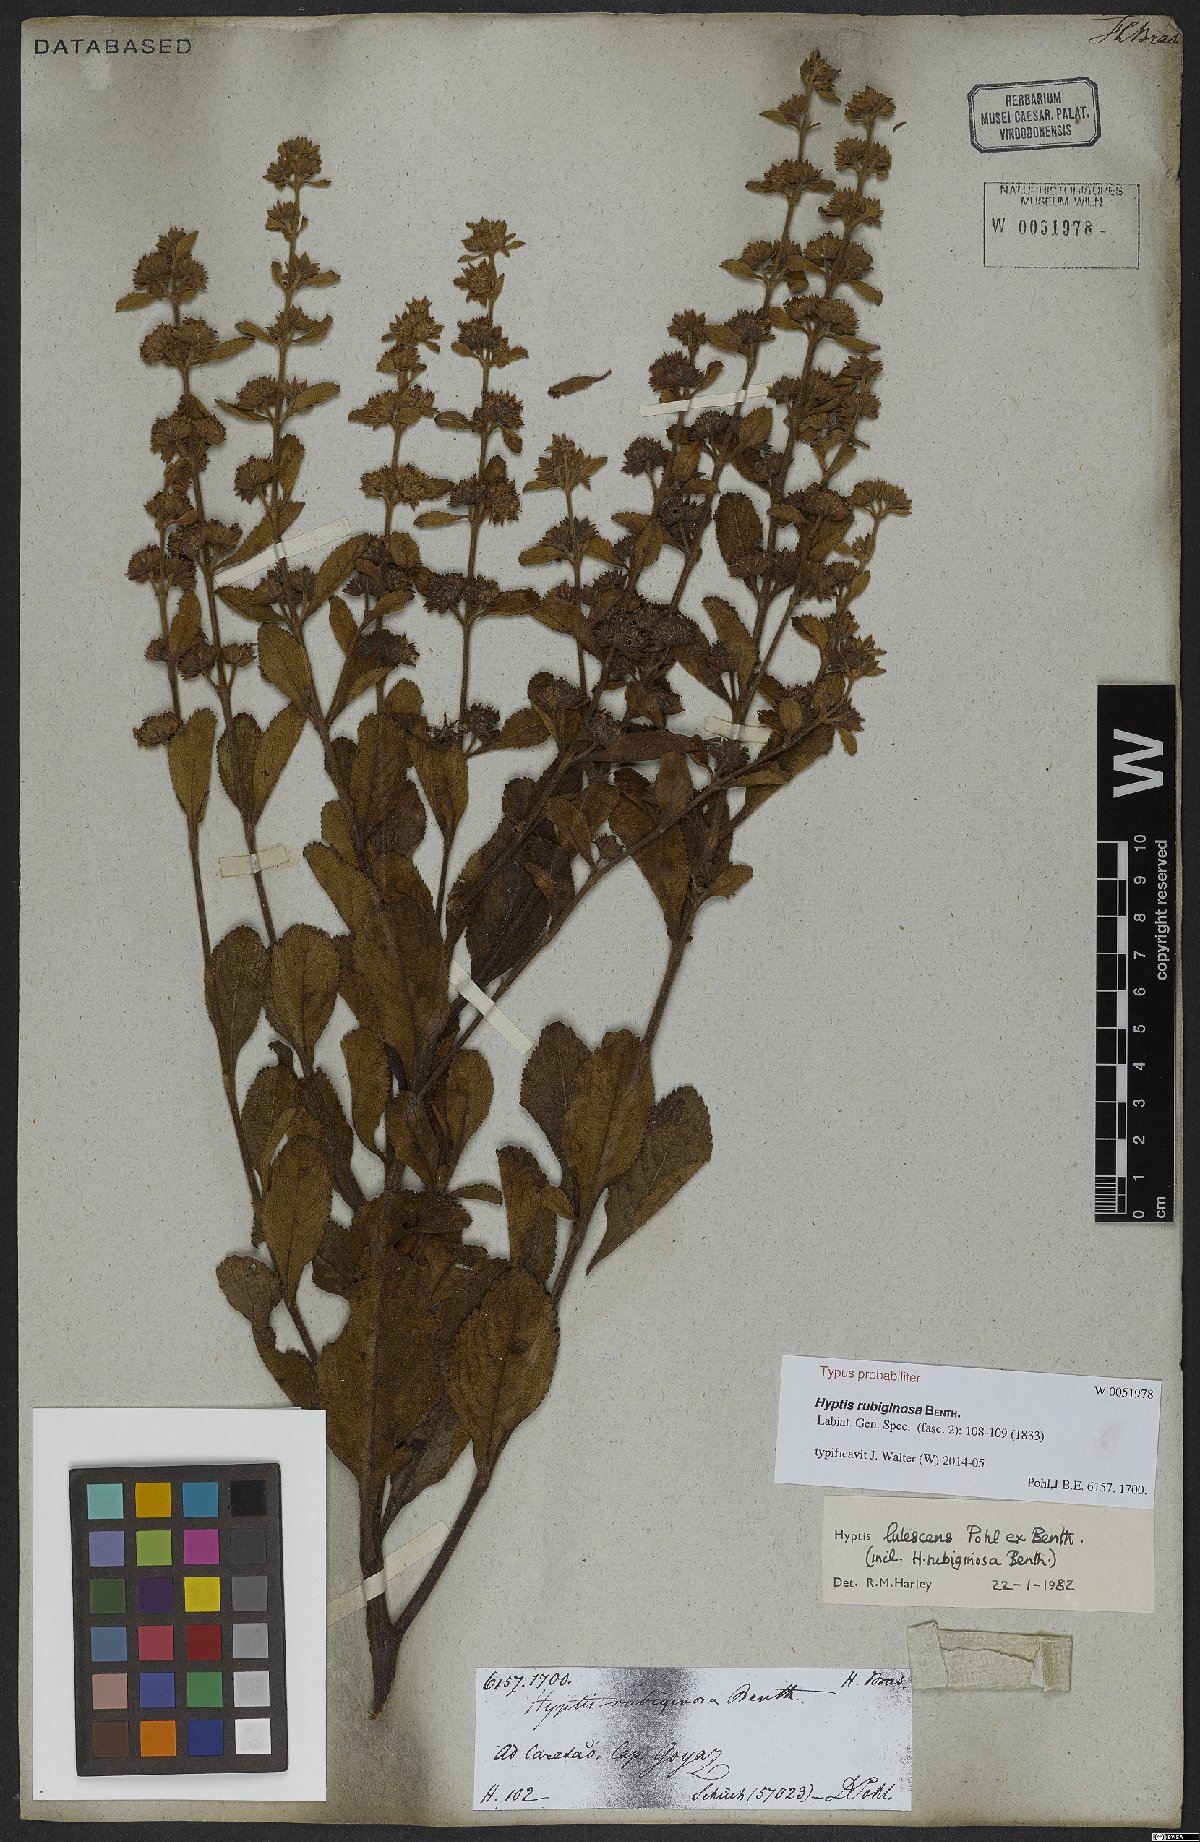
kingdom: Plantae
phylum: Tracheophyta
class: Magnoliopsida
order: Lamiales
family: Lamiaceae
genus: Hyptis
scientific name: Hyptis rubiginosa
